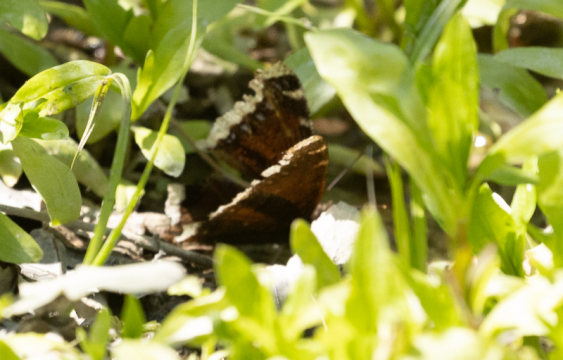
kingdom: Animalia
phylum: Arthropoda
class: Insecta
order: Lepidoptera
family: Nymphalidae
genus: Nymphalis
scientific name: Nymphalis antiopa
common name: Mourning Cloak
